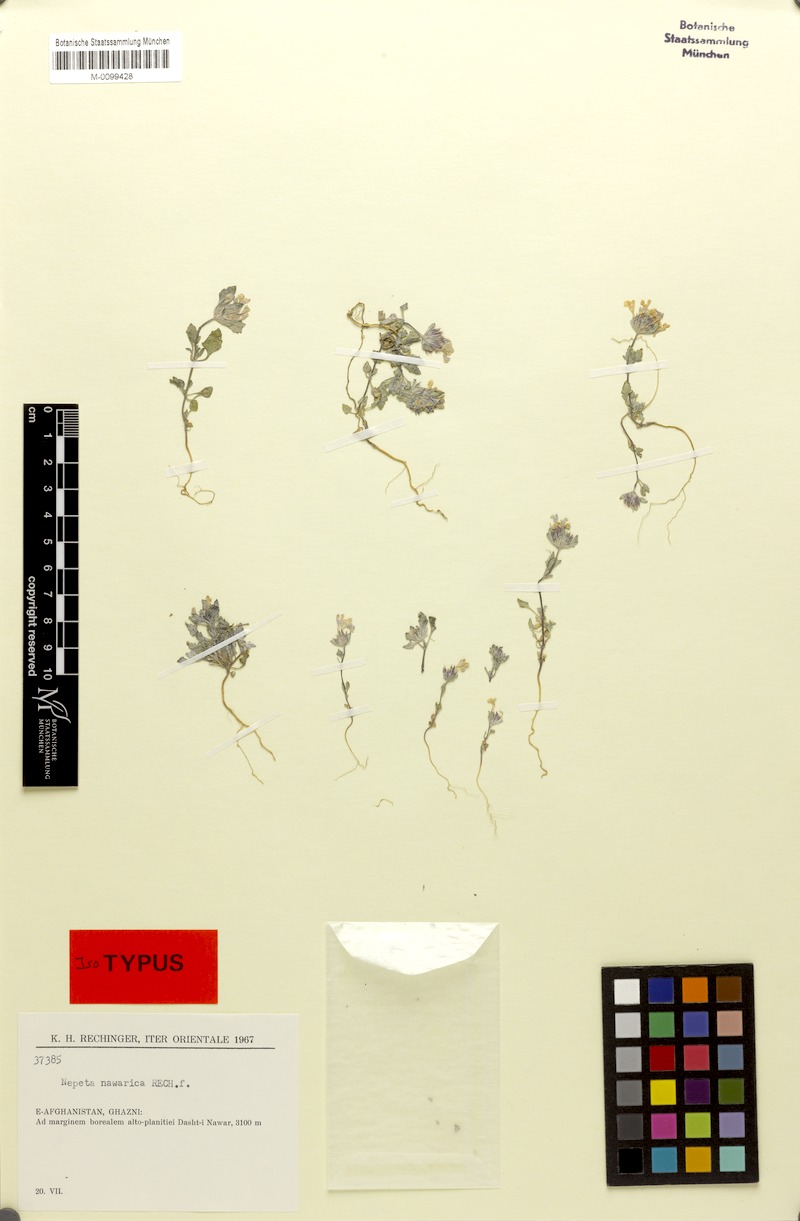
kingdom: Plantae
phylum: Tracheophyta
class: Magnoliopsida
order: Lamiales
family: Lamiaceae
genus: Nepeta
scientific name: Nepeta nawarica
